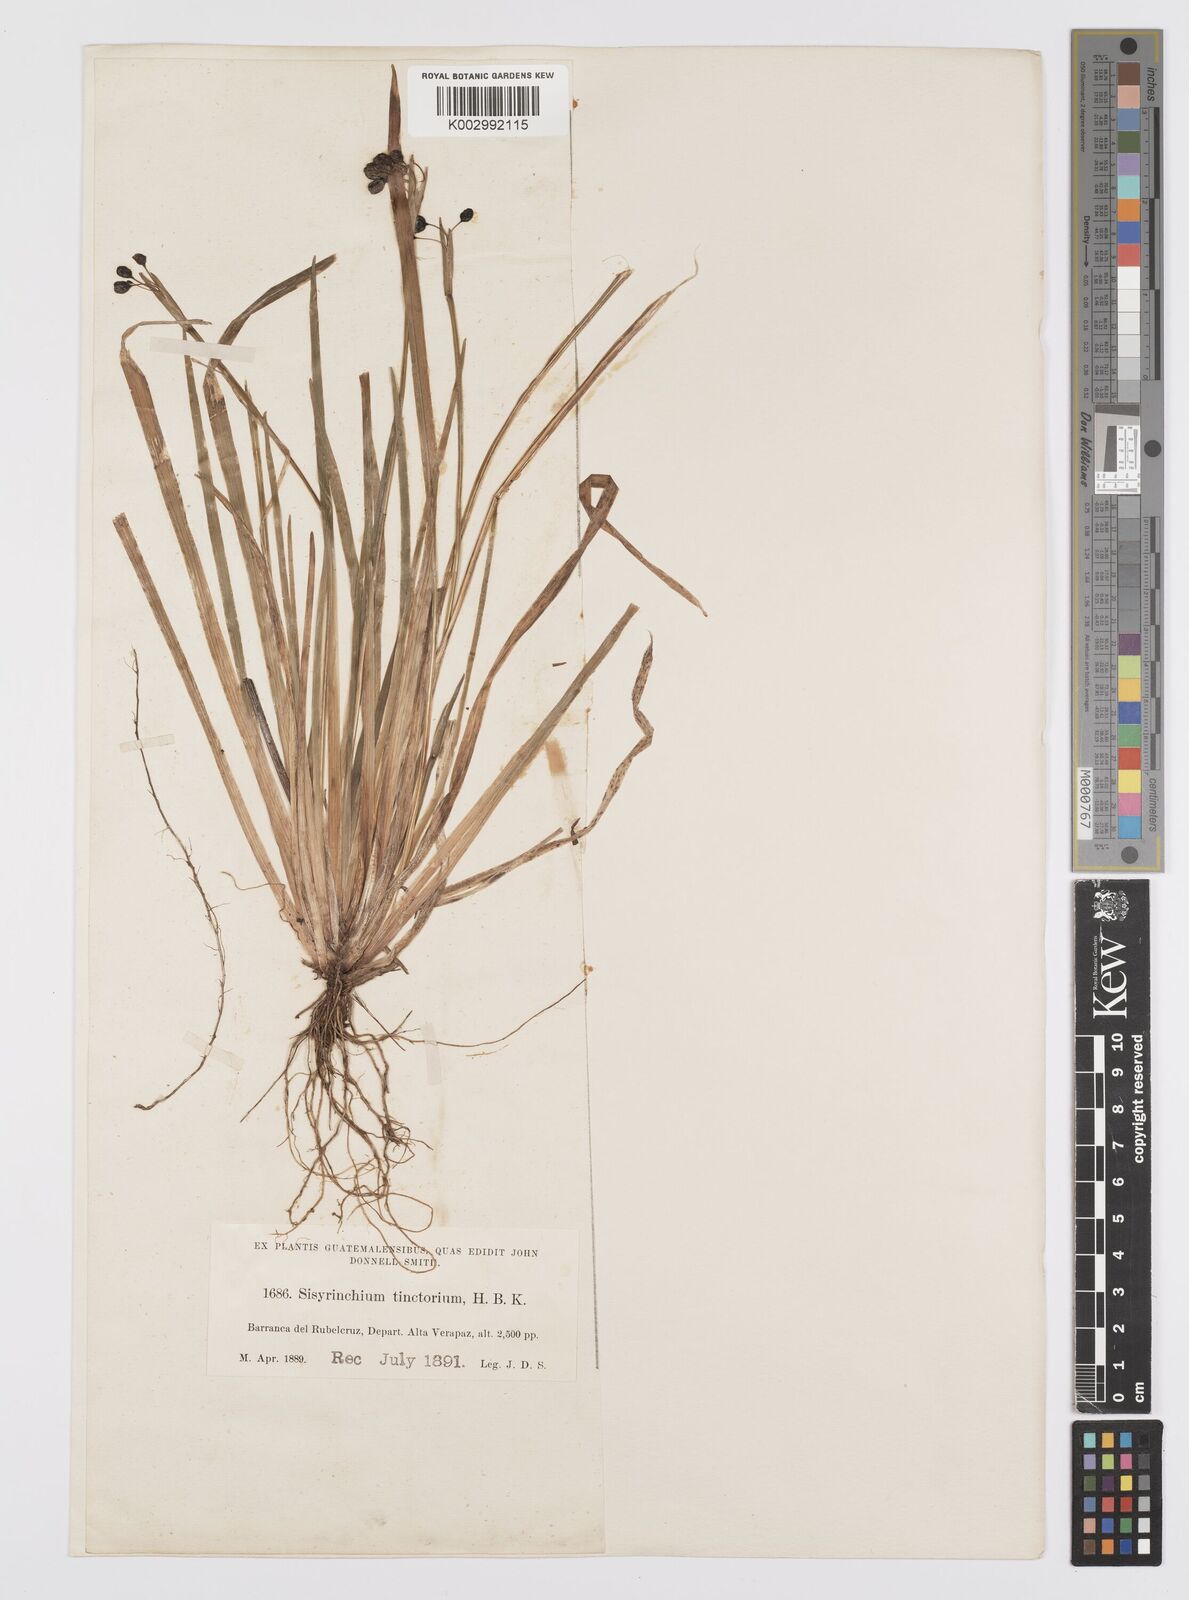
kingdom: Plantae
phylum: Tracheophyta
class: Liliopsida
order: Asparagales
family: Iridaceae
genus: Sisyrinchium
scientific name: Sisyrinchium tinctorium
